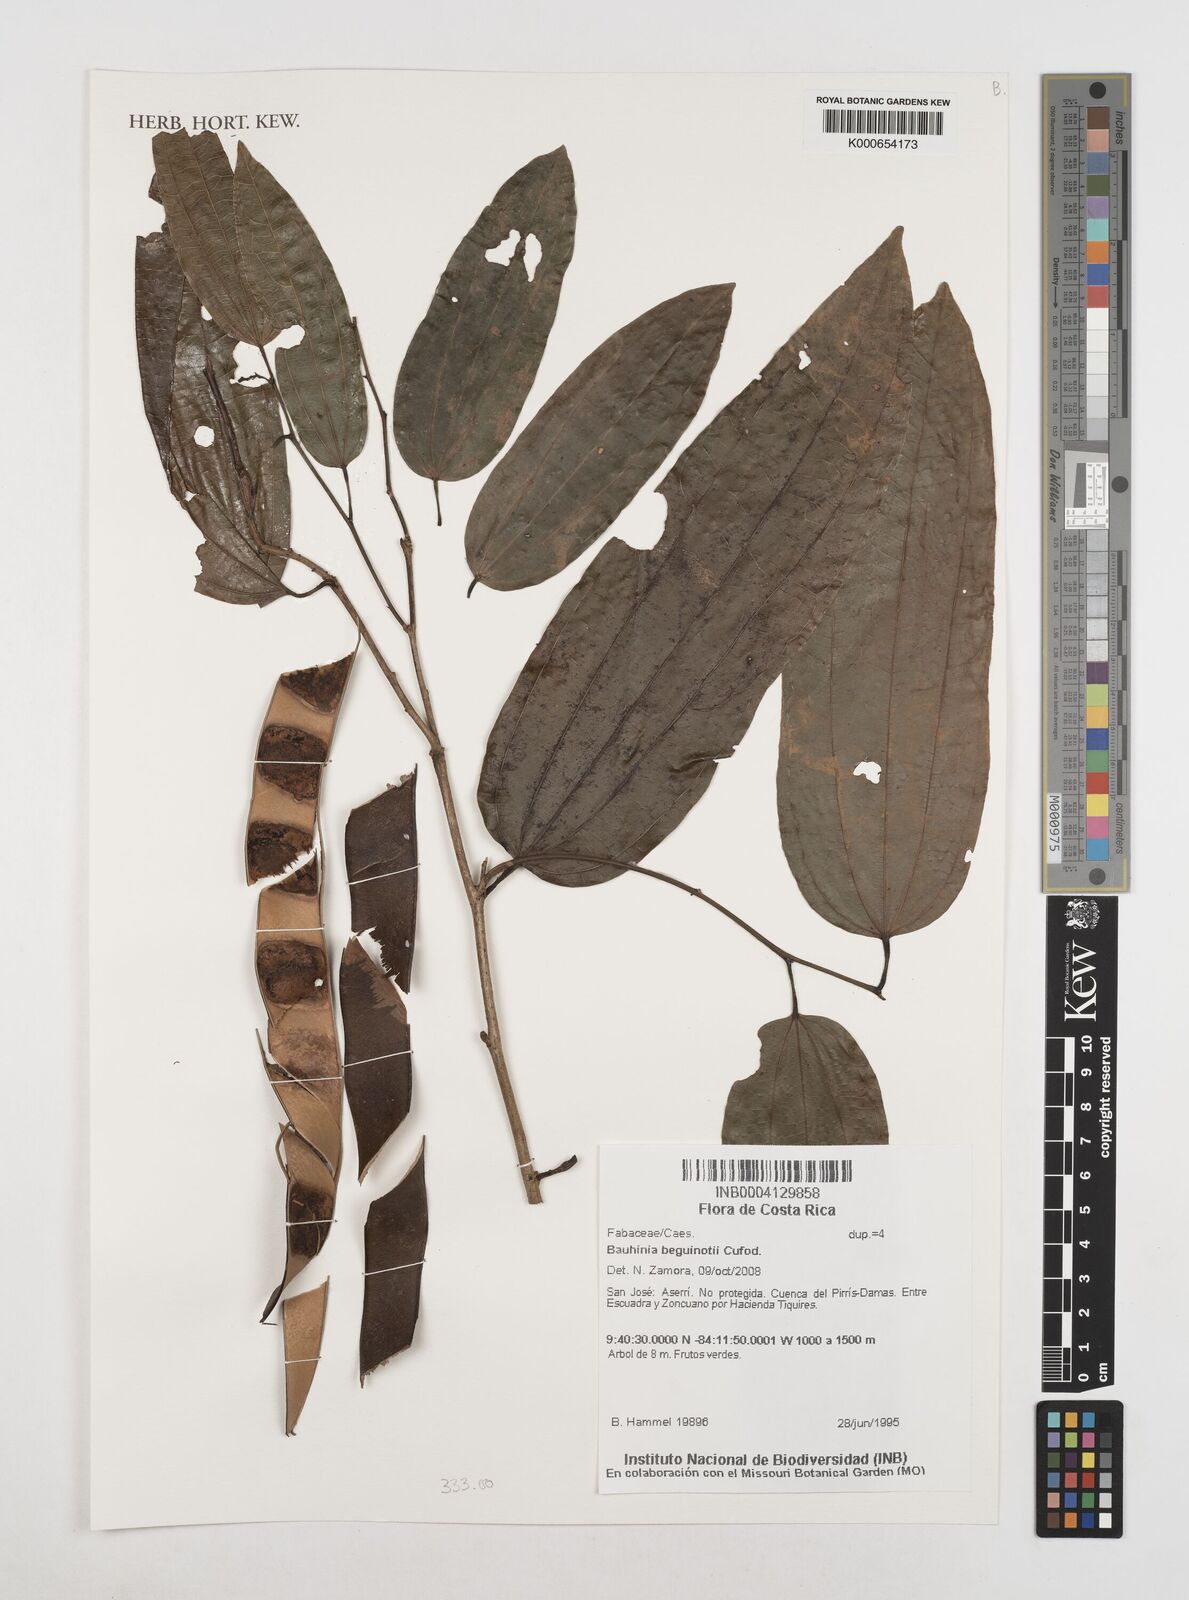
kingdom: Plantae
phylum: Tracheophyta
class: Magnoliopsida
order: Fabales
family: Fabaceae
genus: Bauhinia
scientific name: Bauhinia beguinotii
